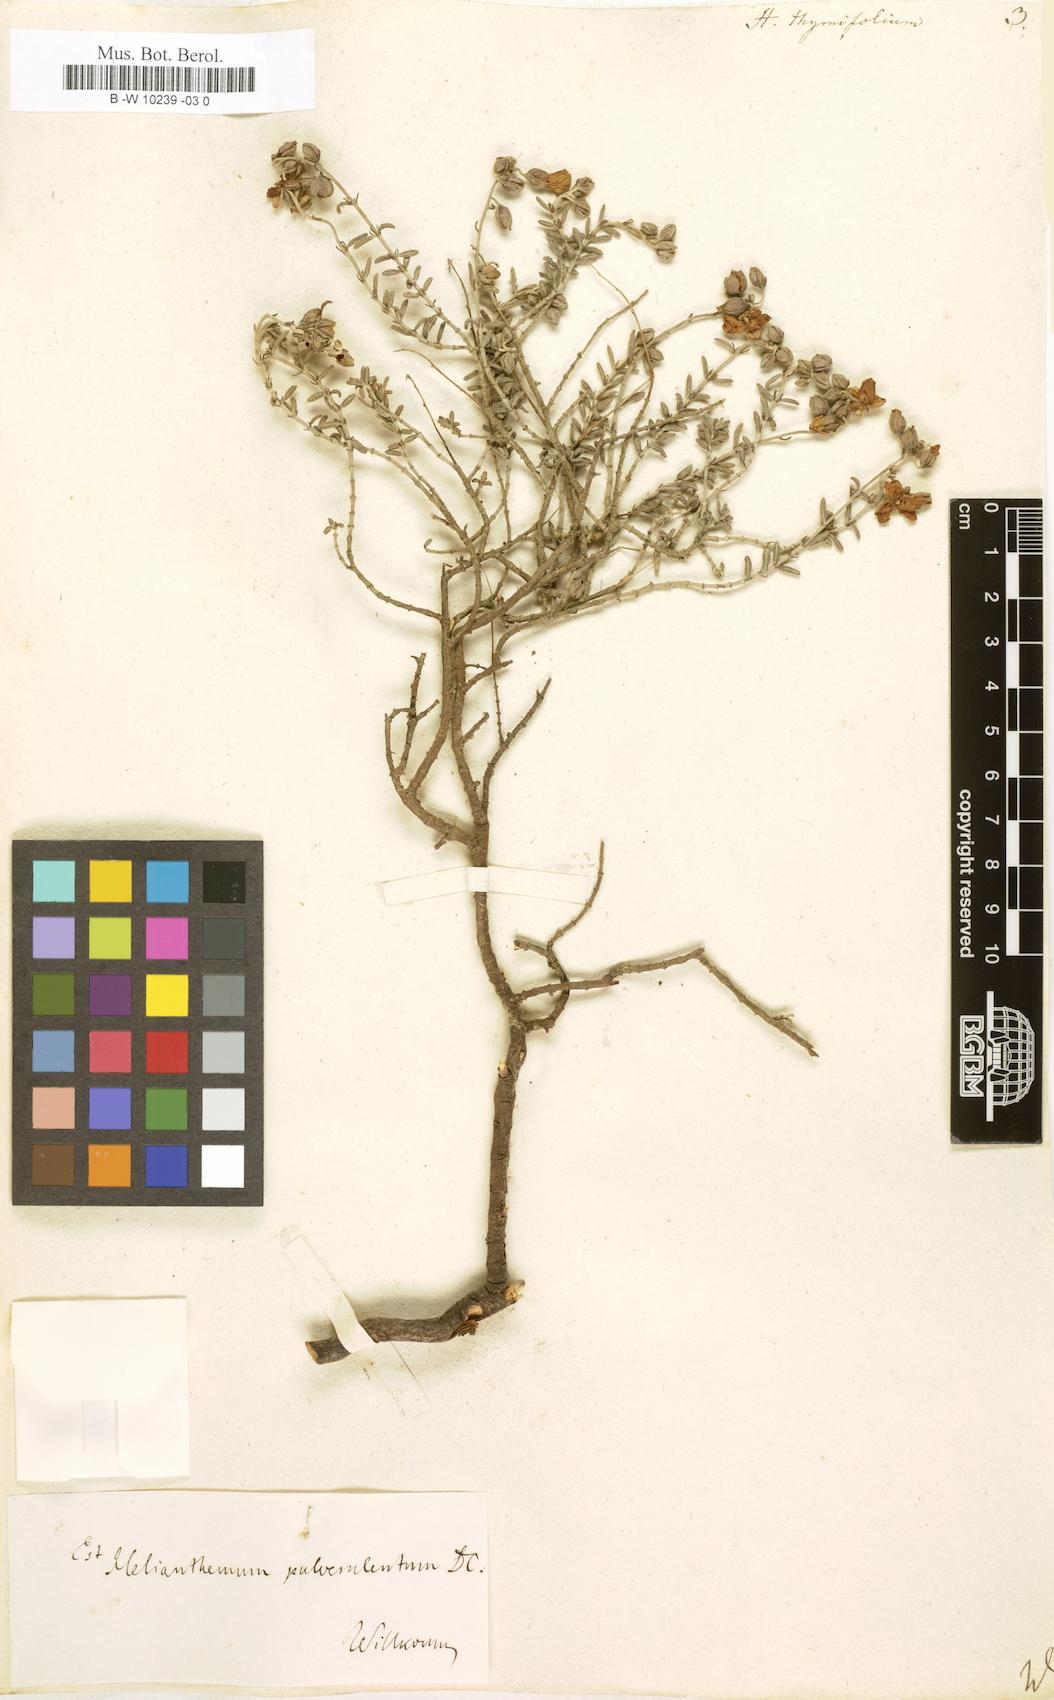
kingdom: Plantae
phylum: Tracheophyta
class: Magnoliopsida
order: Malvales
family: Cistaceae
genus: Fumana
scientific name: Fumana thymifolia
